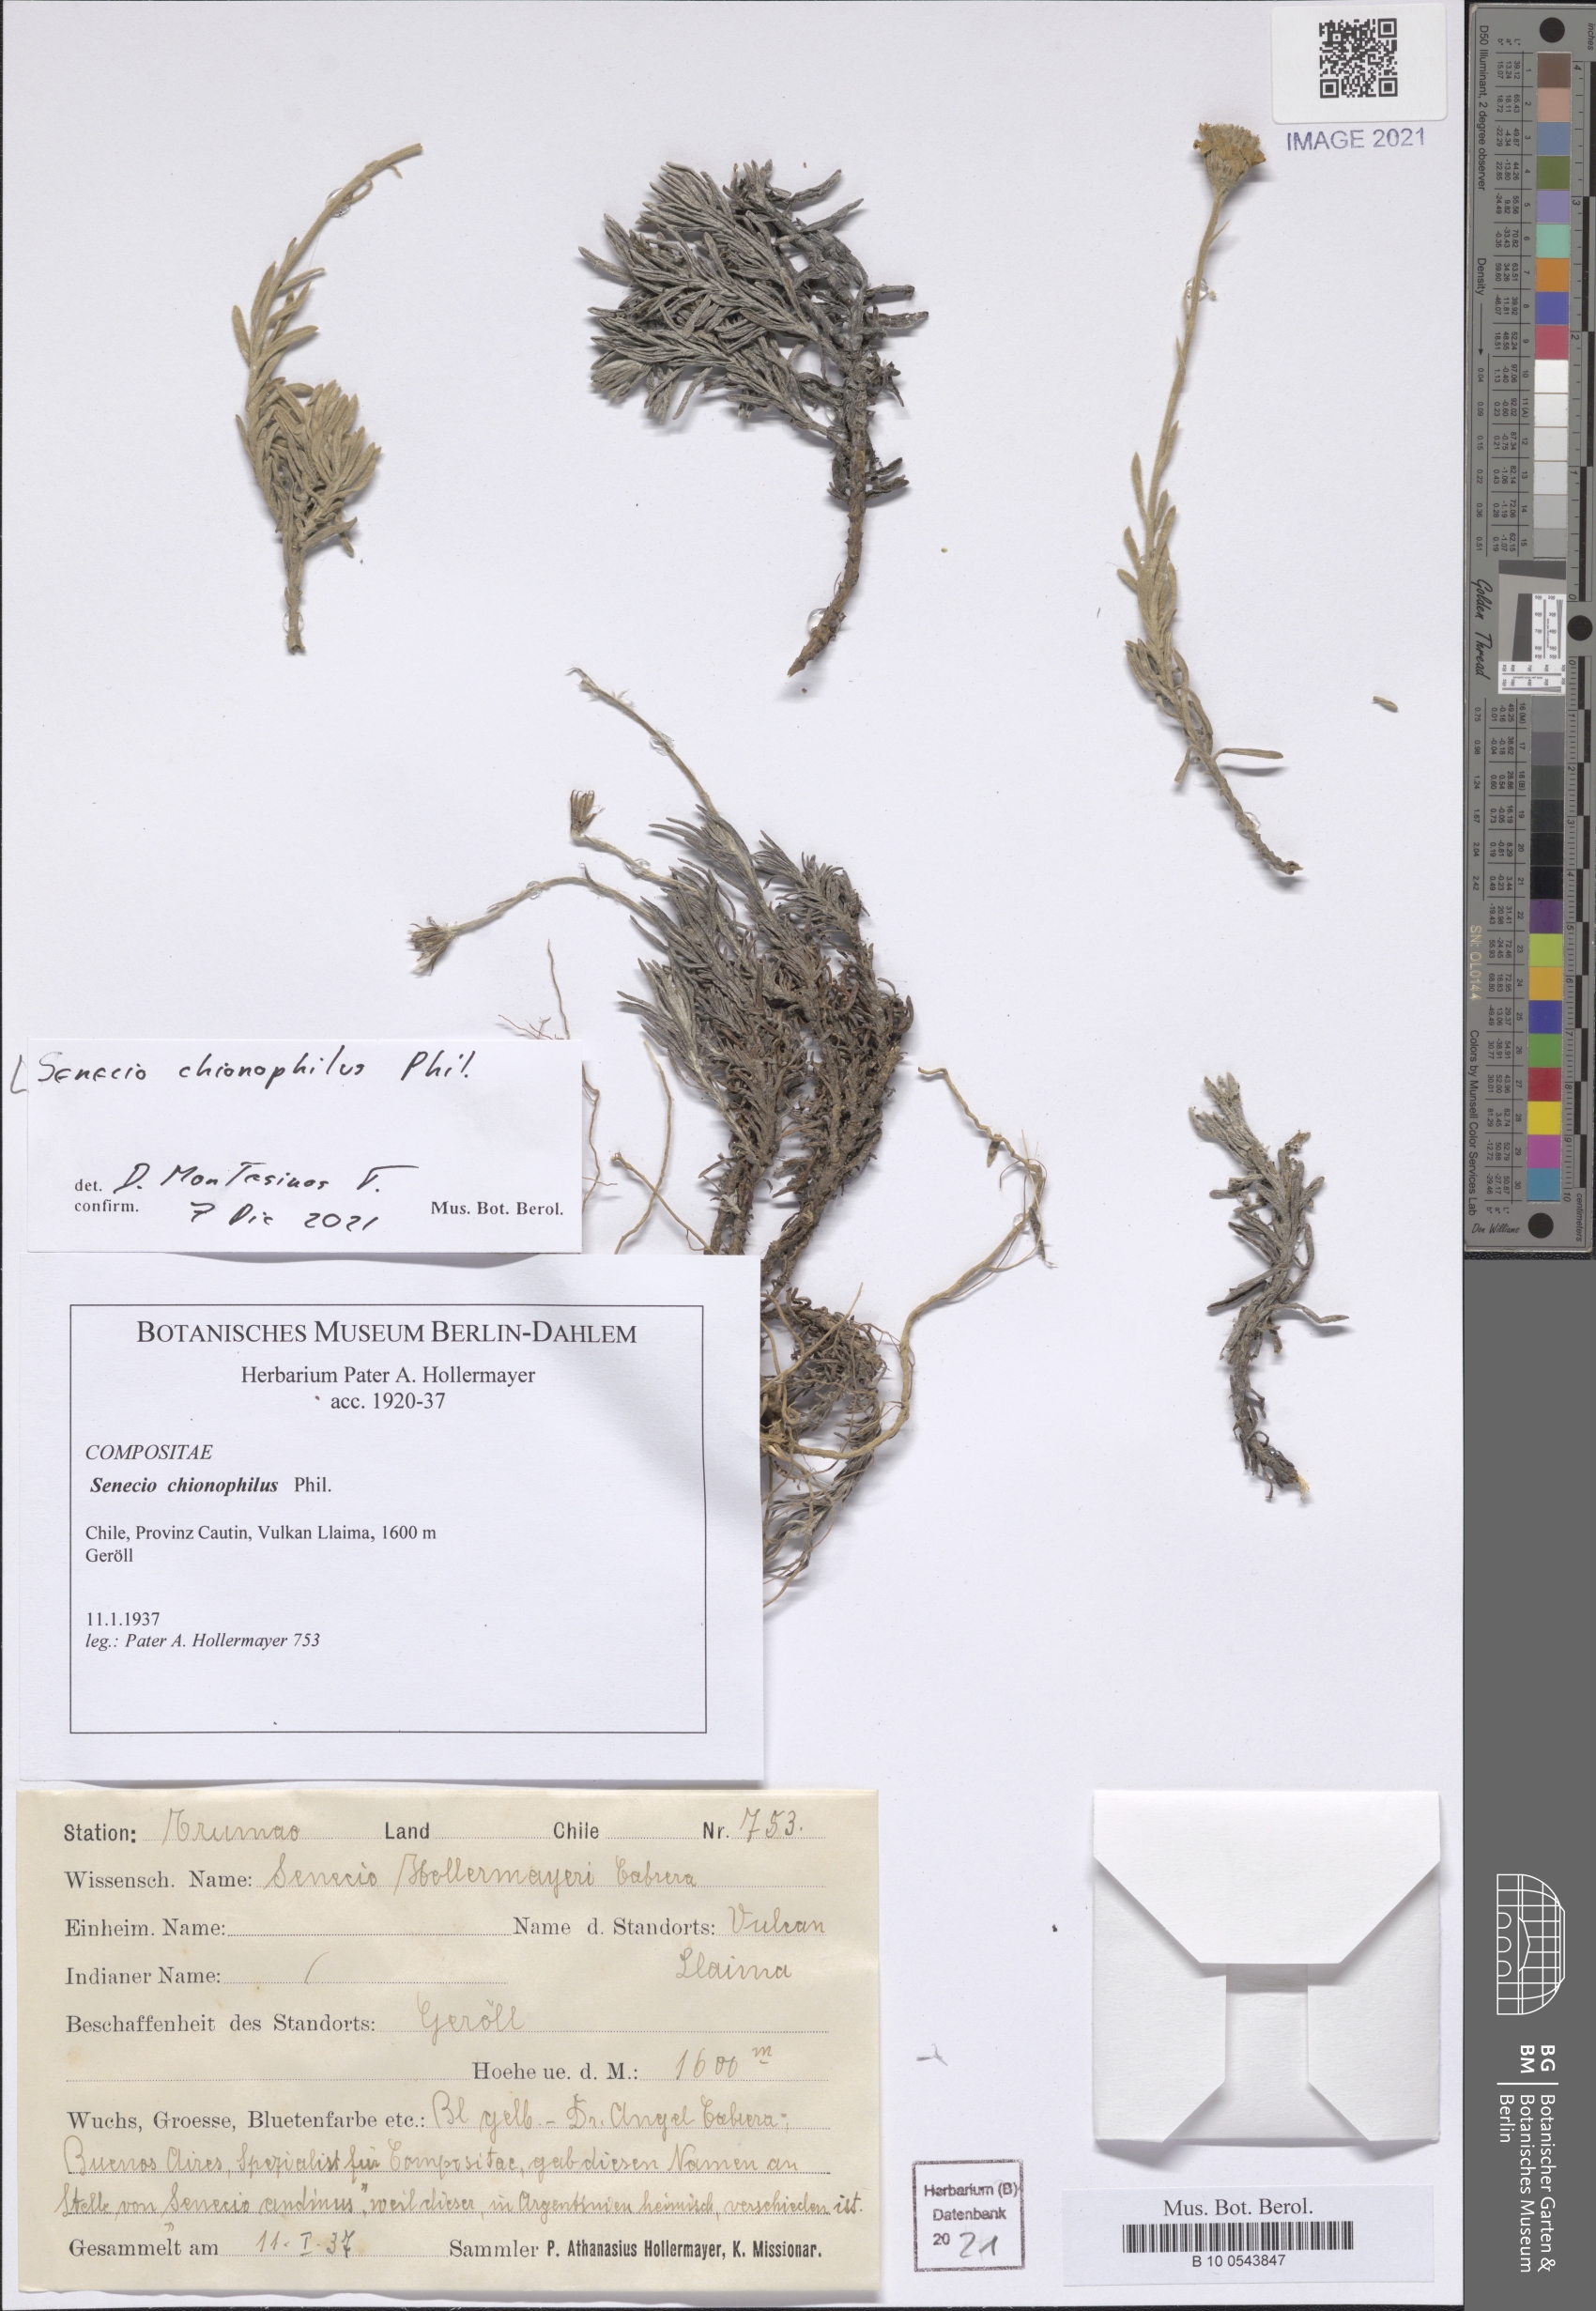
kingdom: Plantae
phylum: Tracheophyta
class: Magnoliopsida
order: Asterales
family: Asteraceae
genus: Senecio
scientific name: Senecio chionophilus
